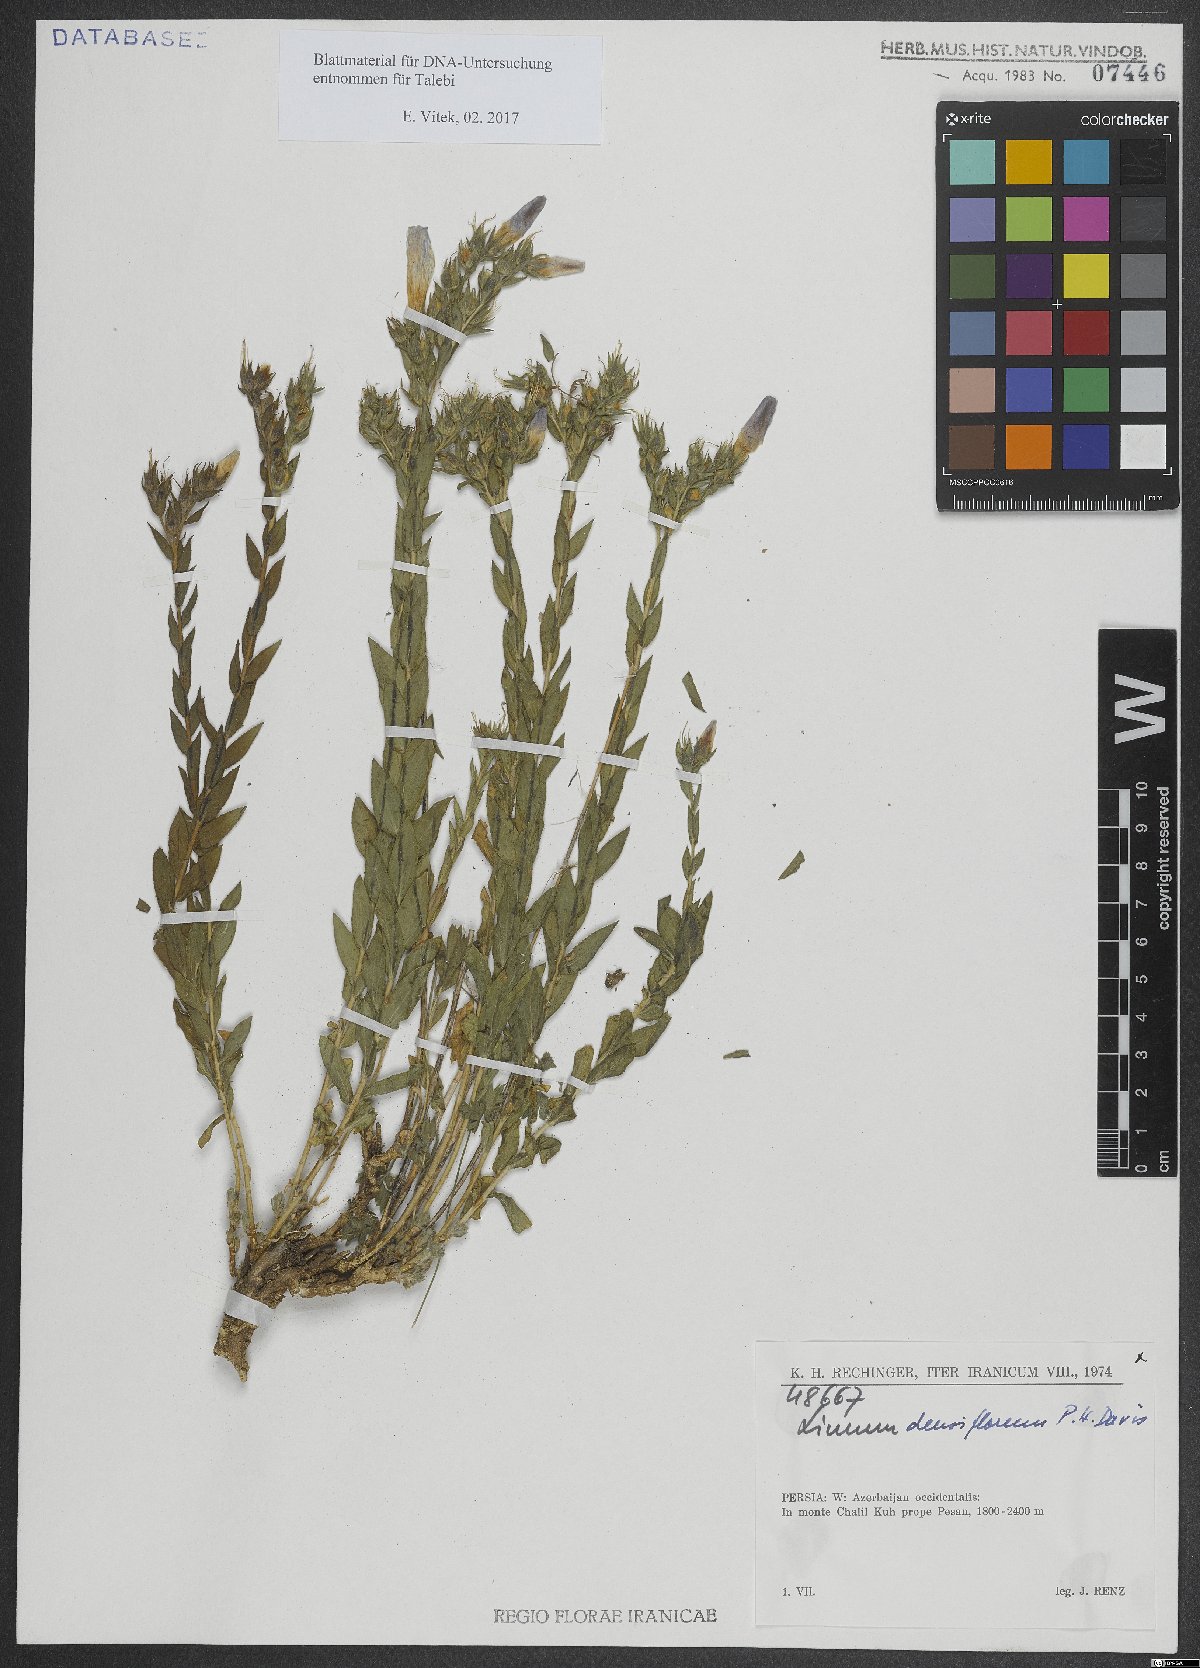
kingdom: Plantae
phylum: Tracheophyta
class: Magnoliopsida
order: Malpighiales
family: Linaceae
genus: Linum
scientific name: Linum densiflorum
